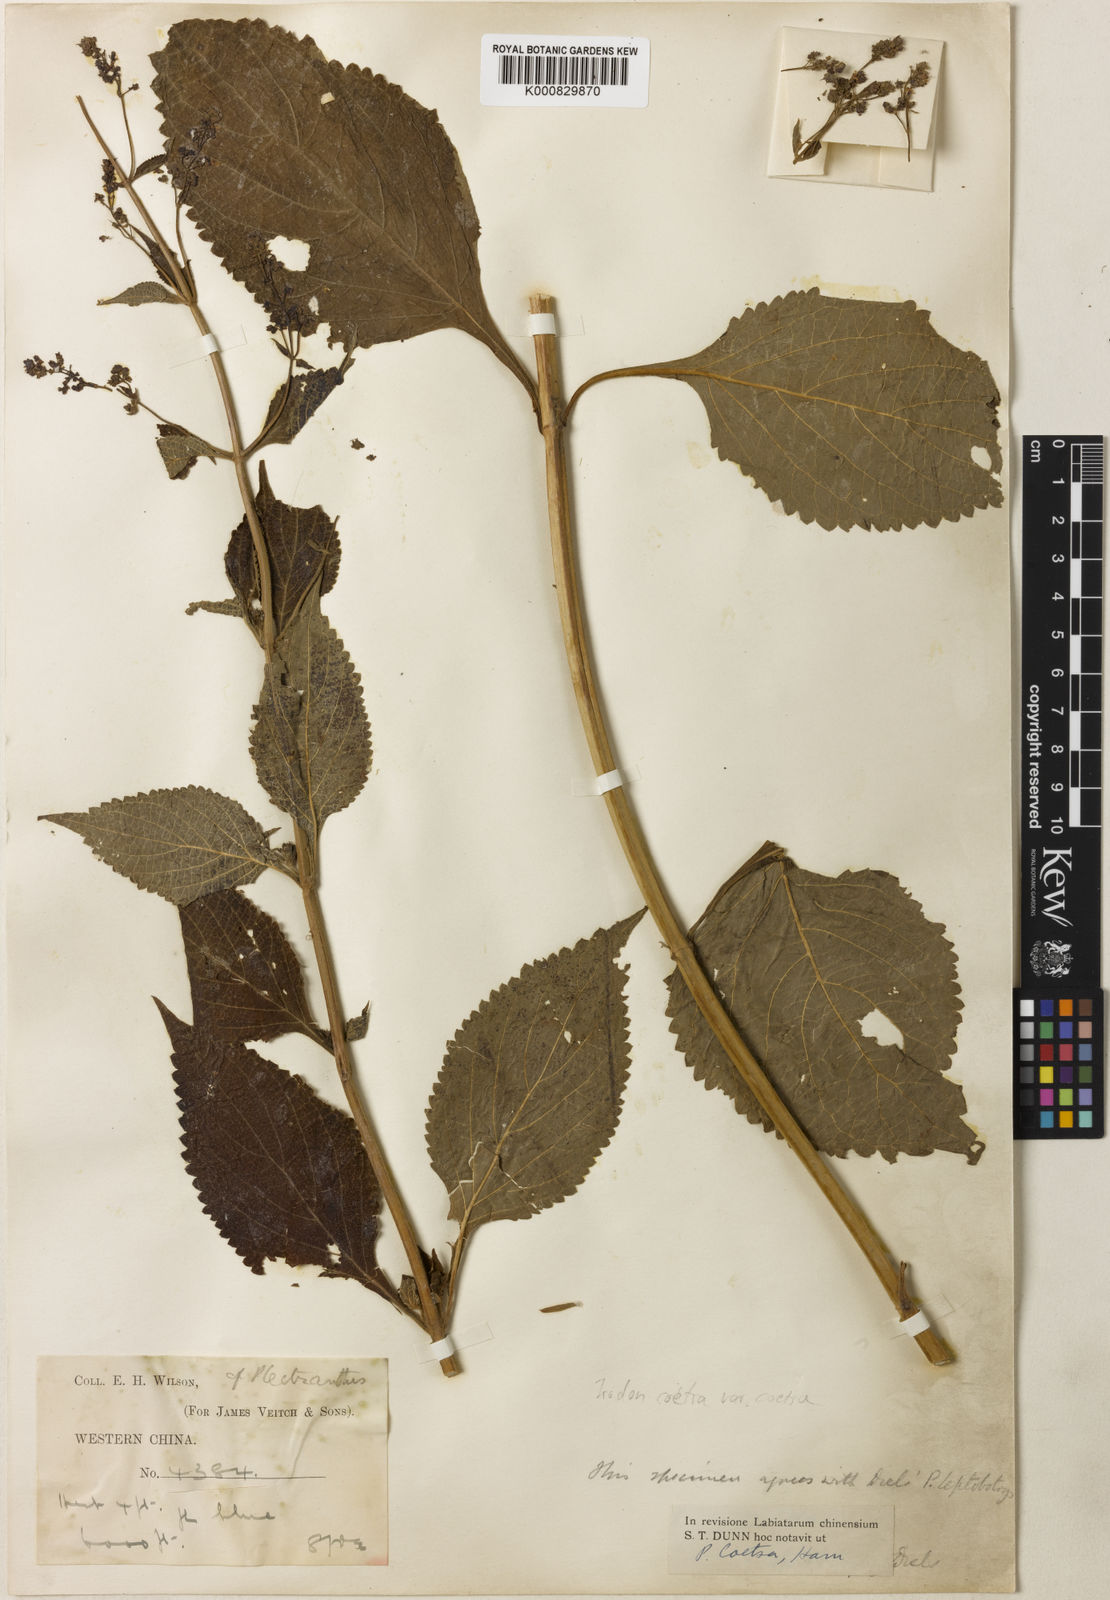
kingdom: Plantae
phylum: Tracheophyta
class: Magnoliopsida
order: Lamiales
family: Lamiaceae
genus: Isodon
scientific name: Isodon
